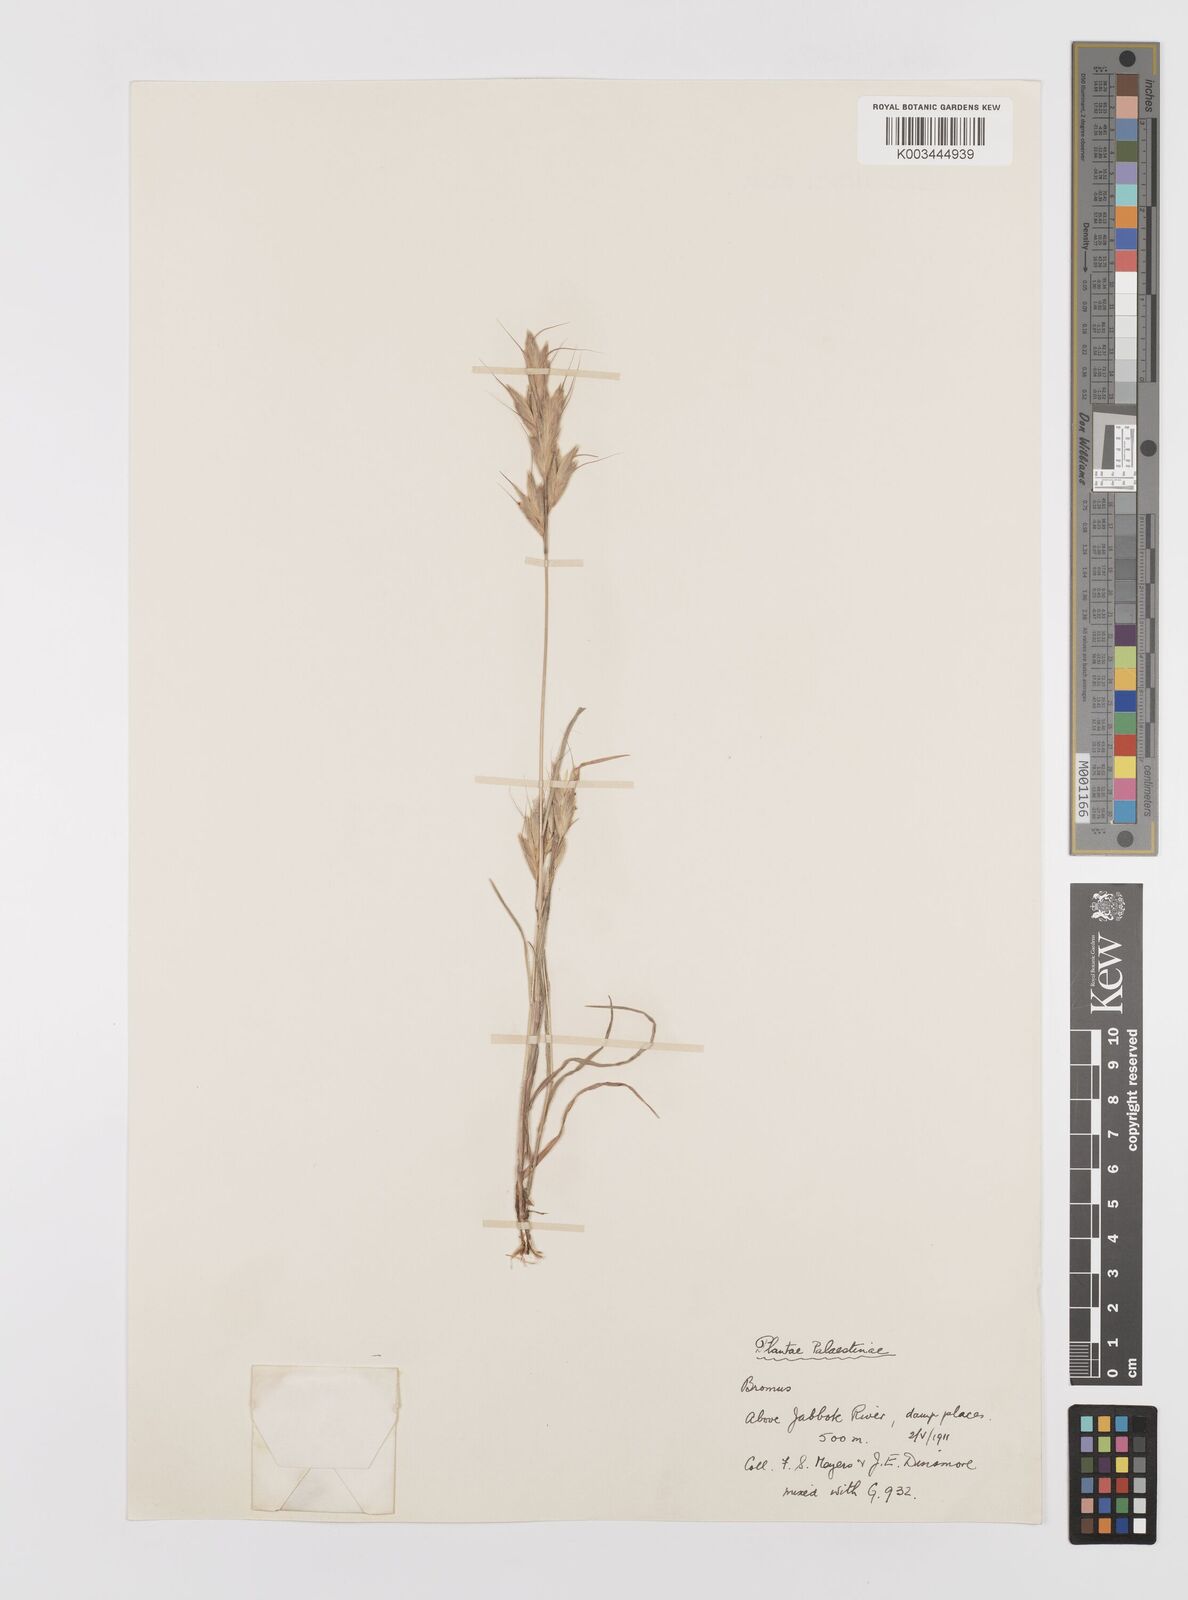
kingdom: Plantae
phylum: Tracheophyta
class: Liliopsida
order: Poales
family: Poaceae
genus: Bromus
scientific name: Bromus lanceolatus
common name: Mediterranean brome
